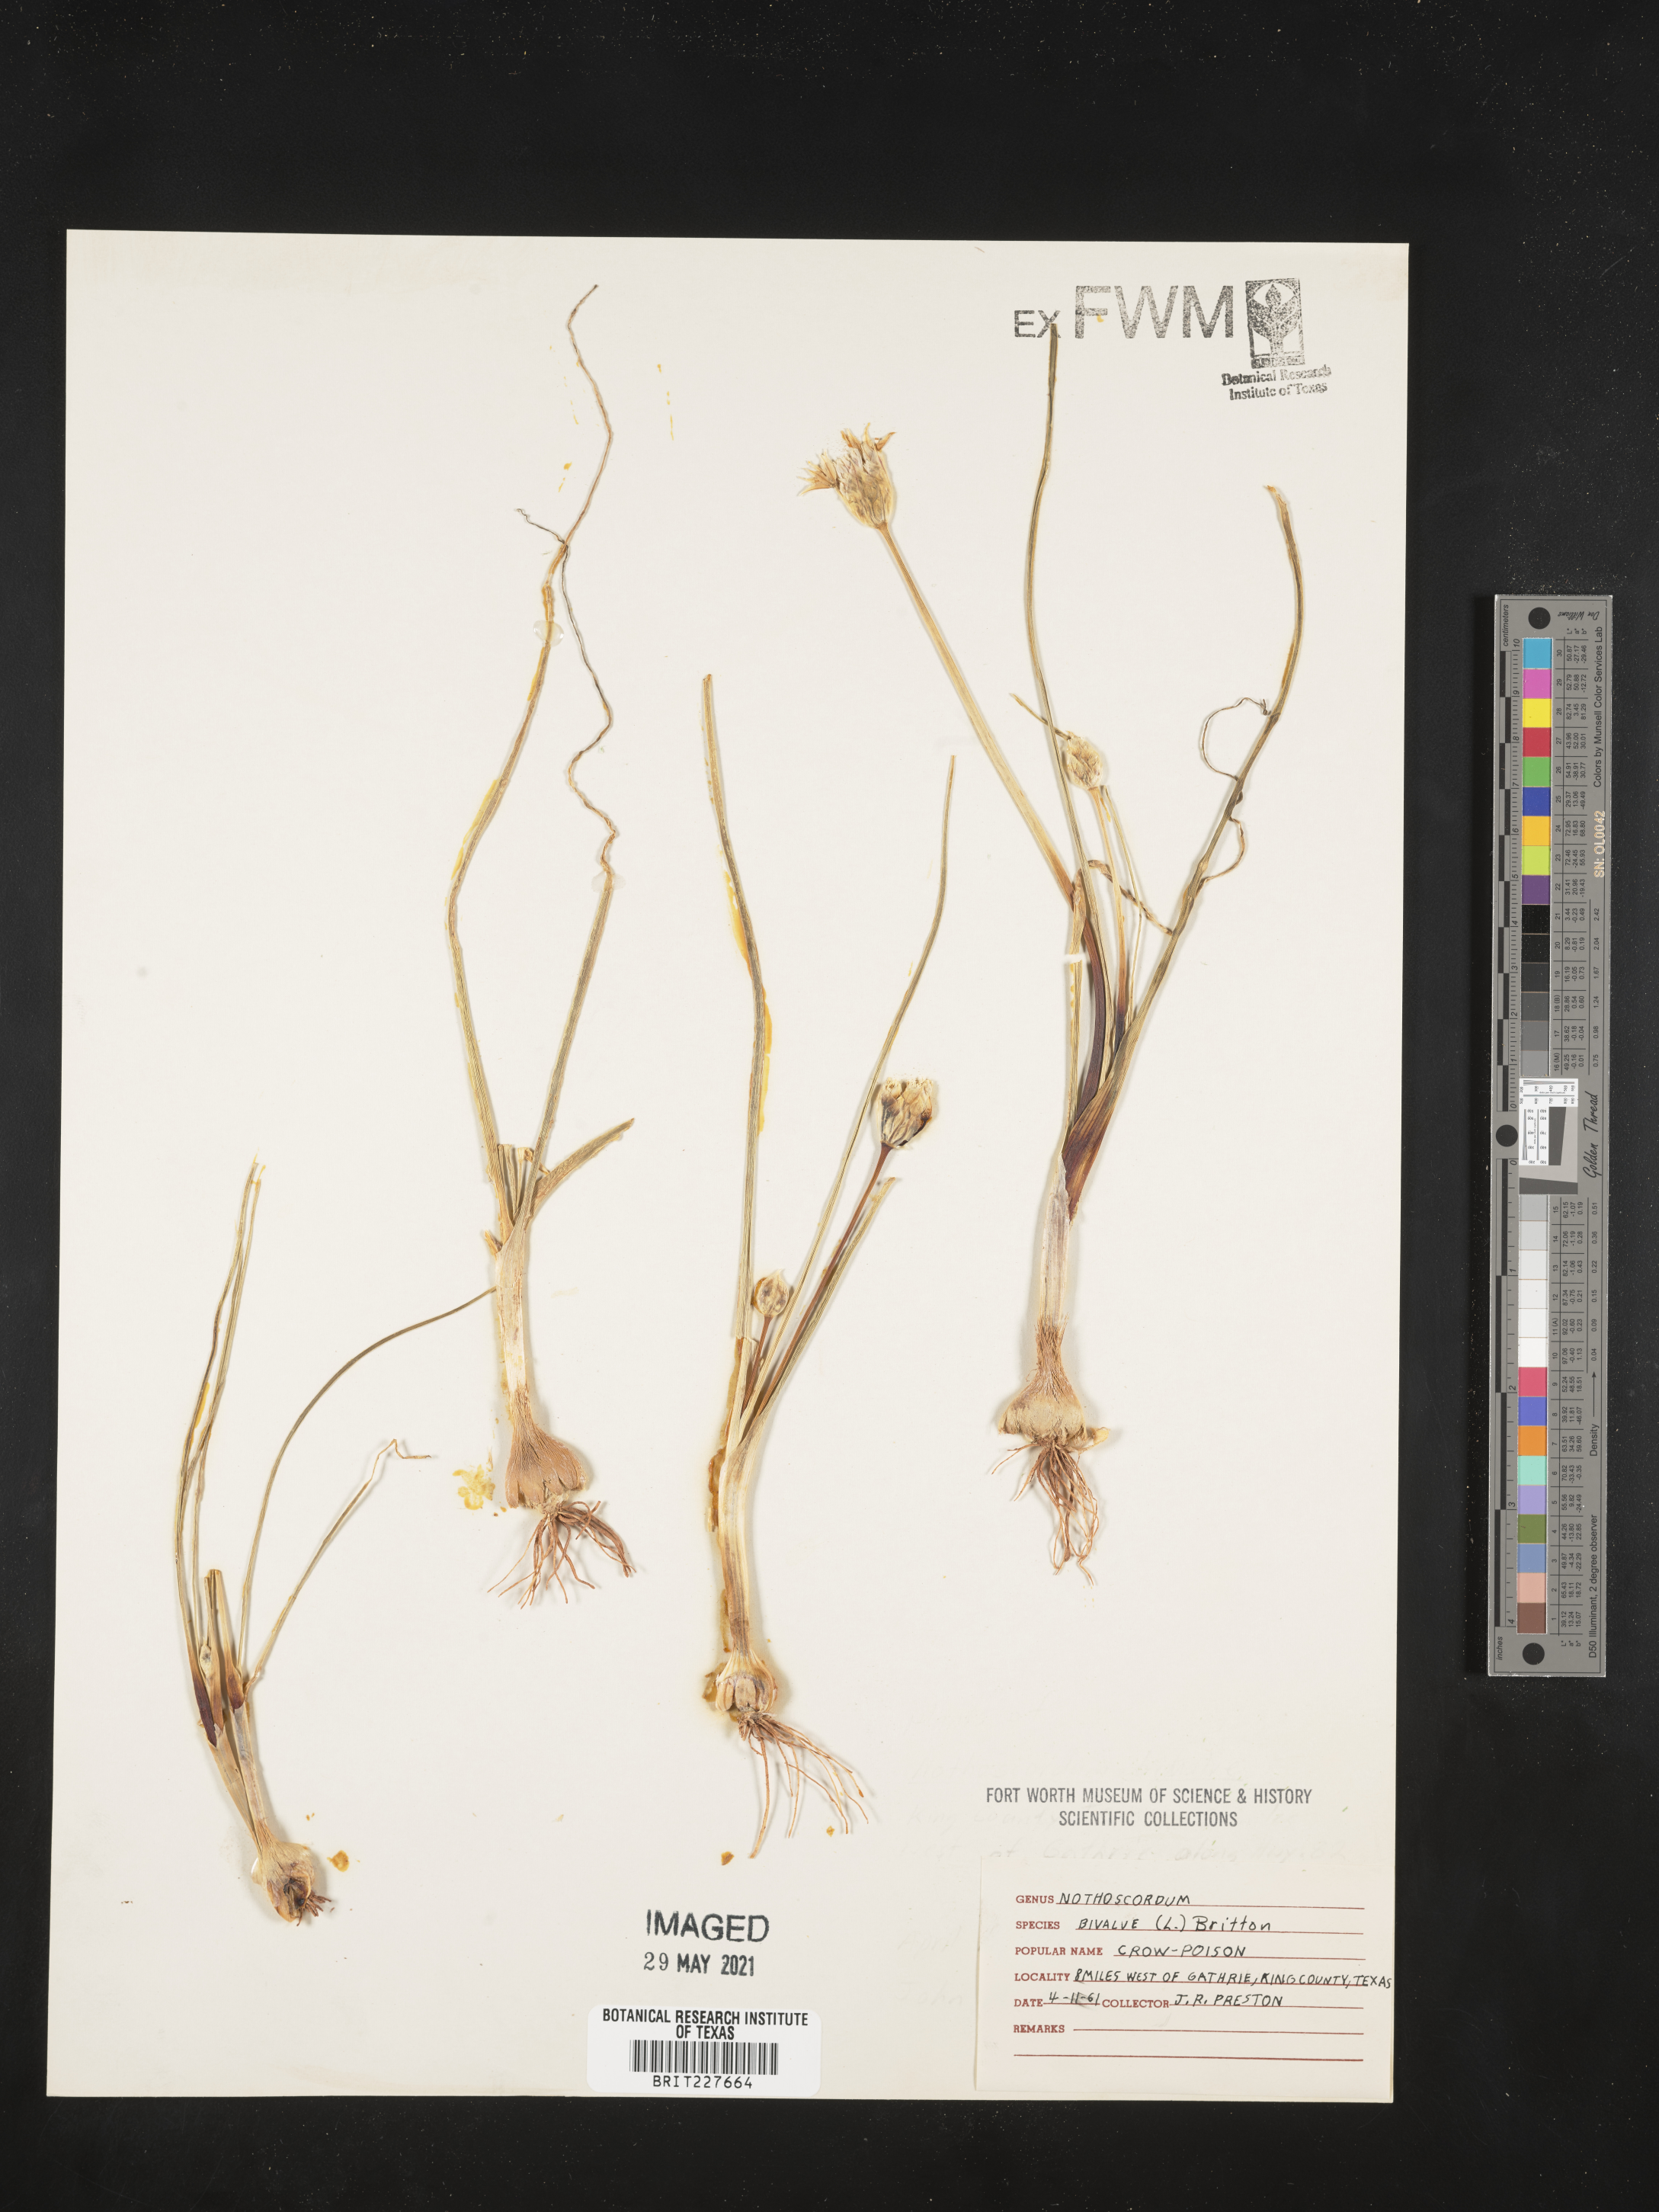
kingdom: Plantae
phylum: Tracheophyta
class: Liliopsida
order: Asparagales
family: Amaryllidaceae
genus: Nothoscordum
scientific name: Nothoscordum bivalve
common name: Crow-poison
